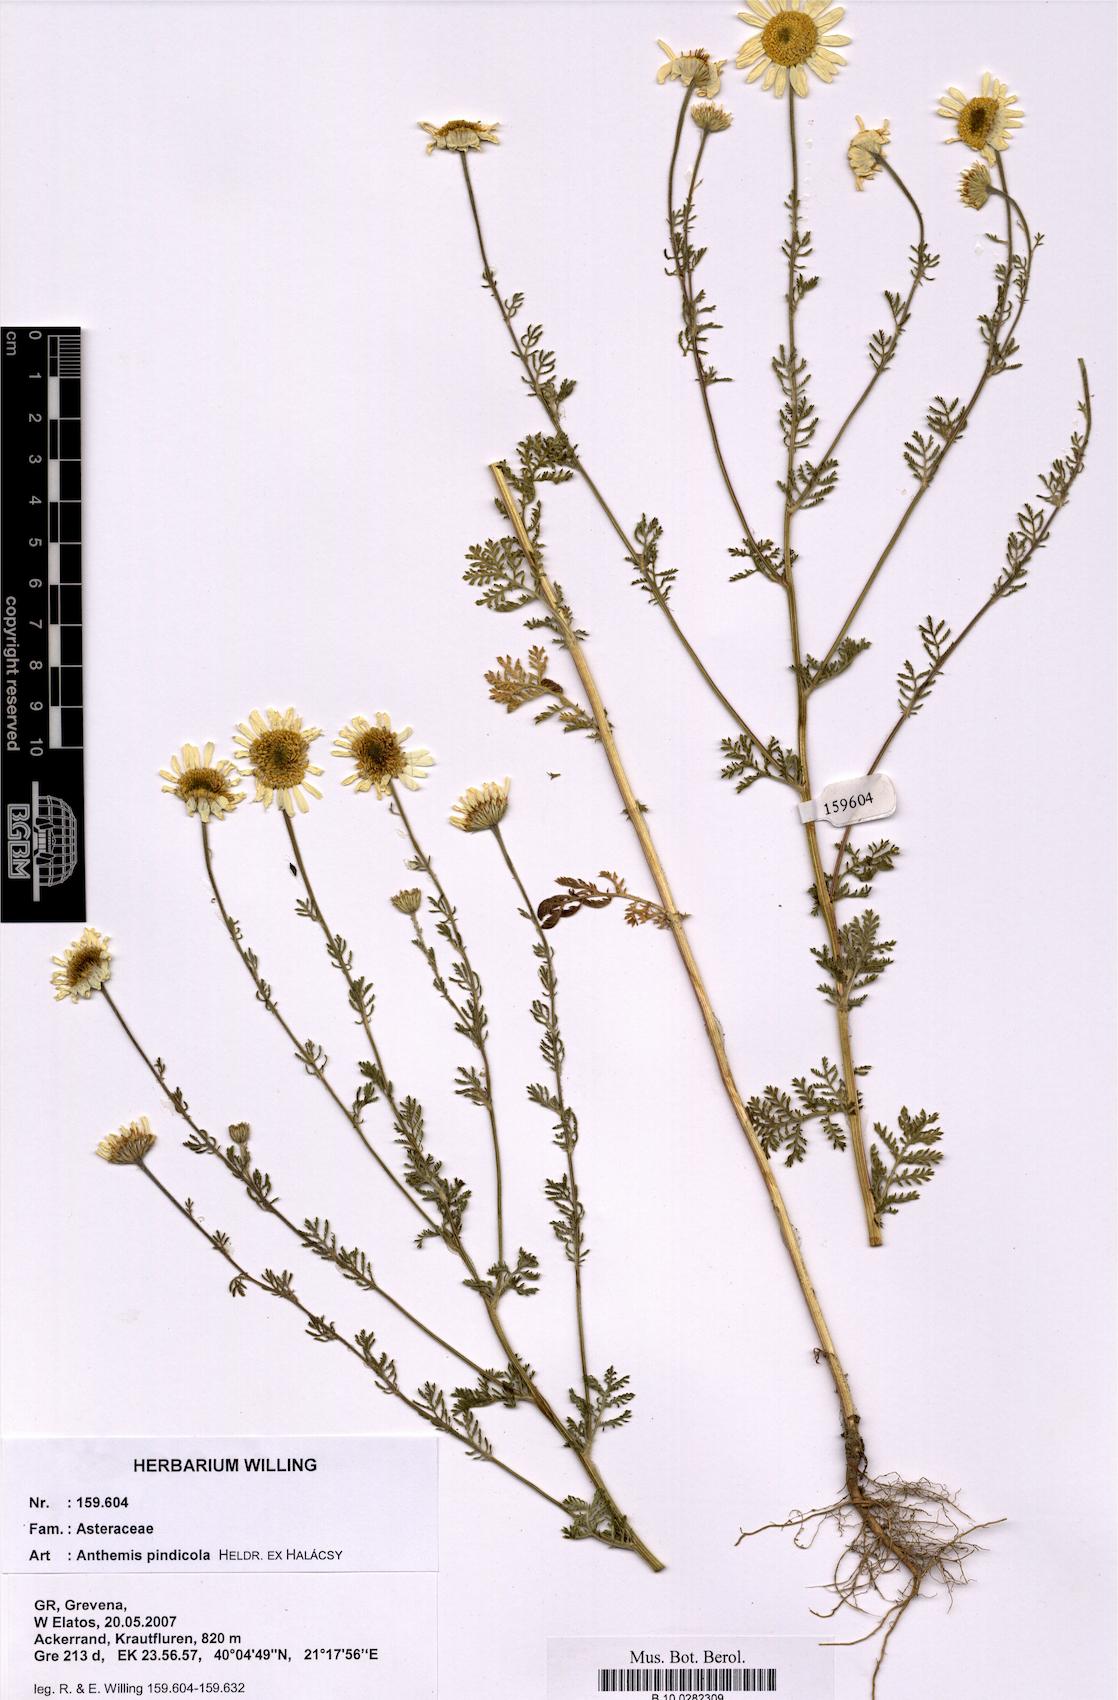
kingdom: Plantae
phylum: Tracheophyta
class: Magnoliopsida
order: Asterales
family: Asteraceae
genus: Anthemis
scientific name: Anthemis pindicola
